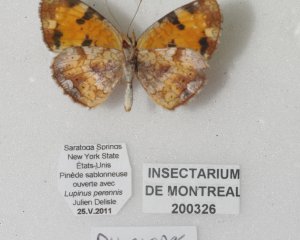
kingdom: Animalia
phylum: Arthropoda
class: Insecta
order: Lepidoptera
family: Nymphalidae
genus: Phyciodes
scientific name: Phyciodes tharos
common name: Pearl Crescent
